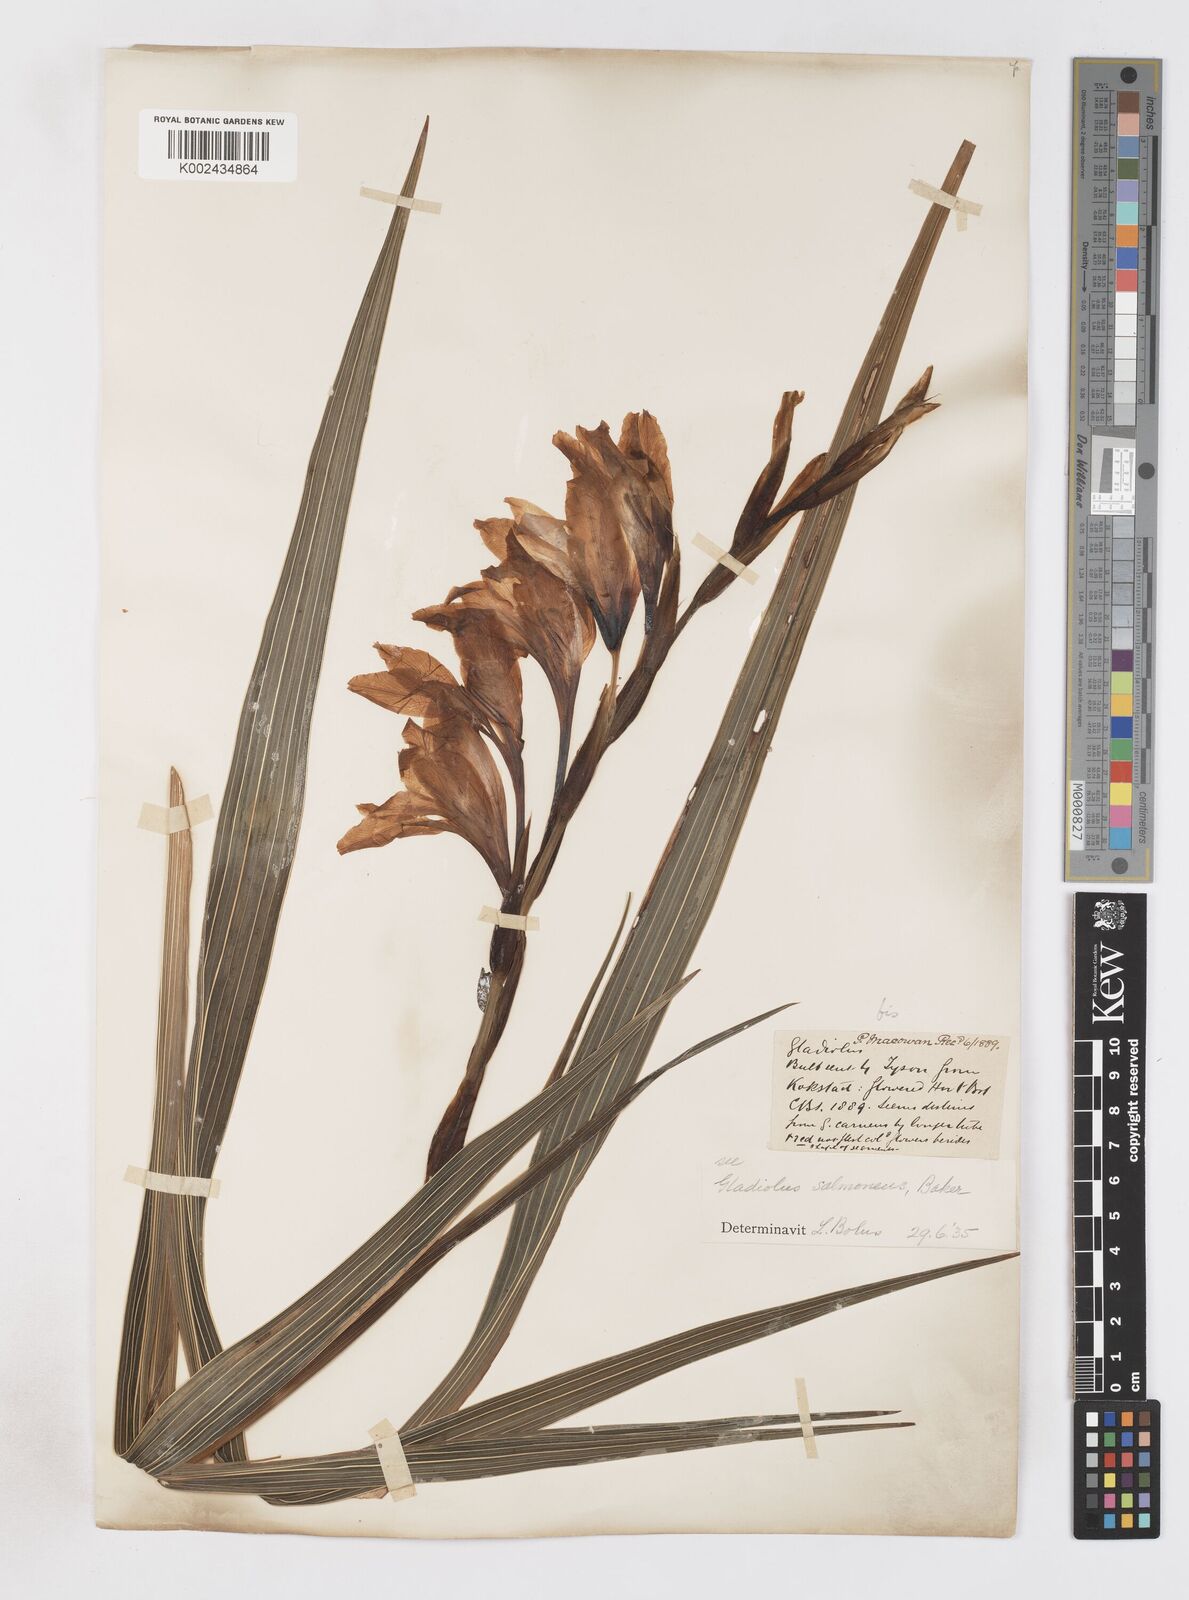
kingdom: Plantae
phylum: Tracheophyta
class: Liliopsida
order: Asparagales
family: Iridaceae
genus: Gladiolus
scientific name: Gladiolus oppositiflorus
